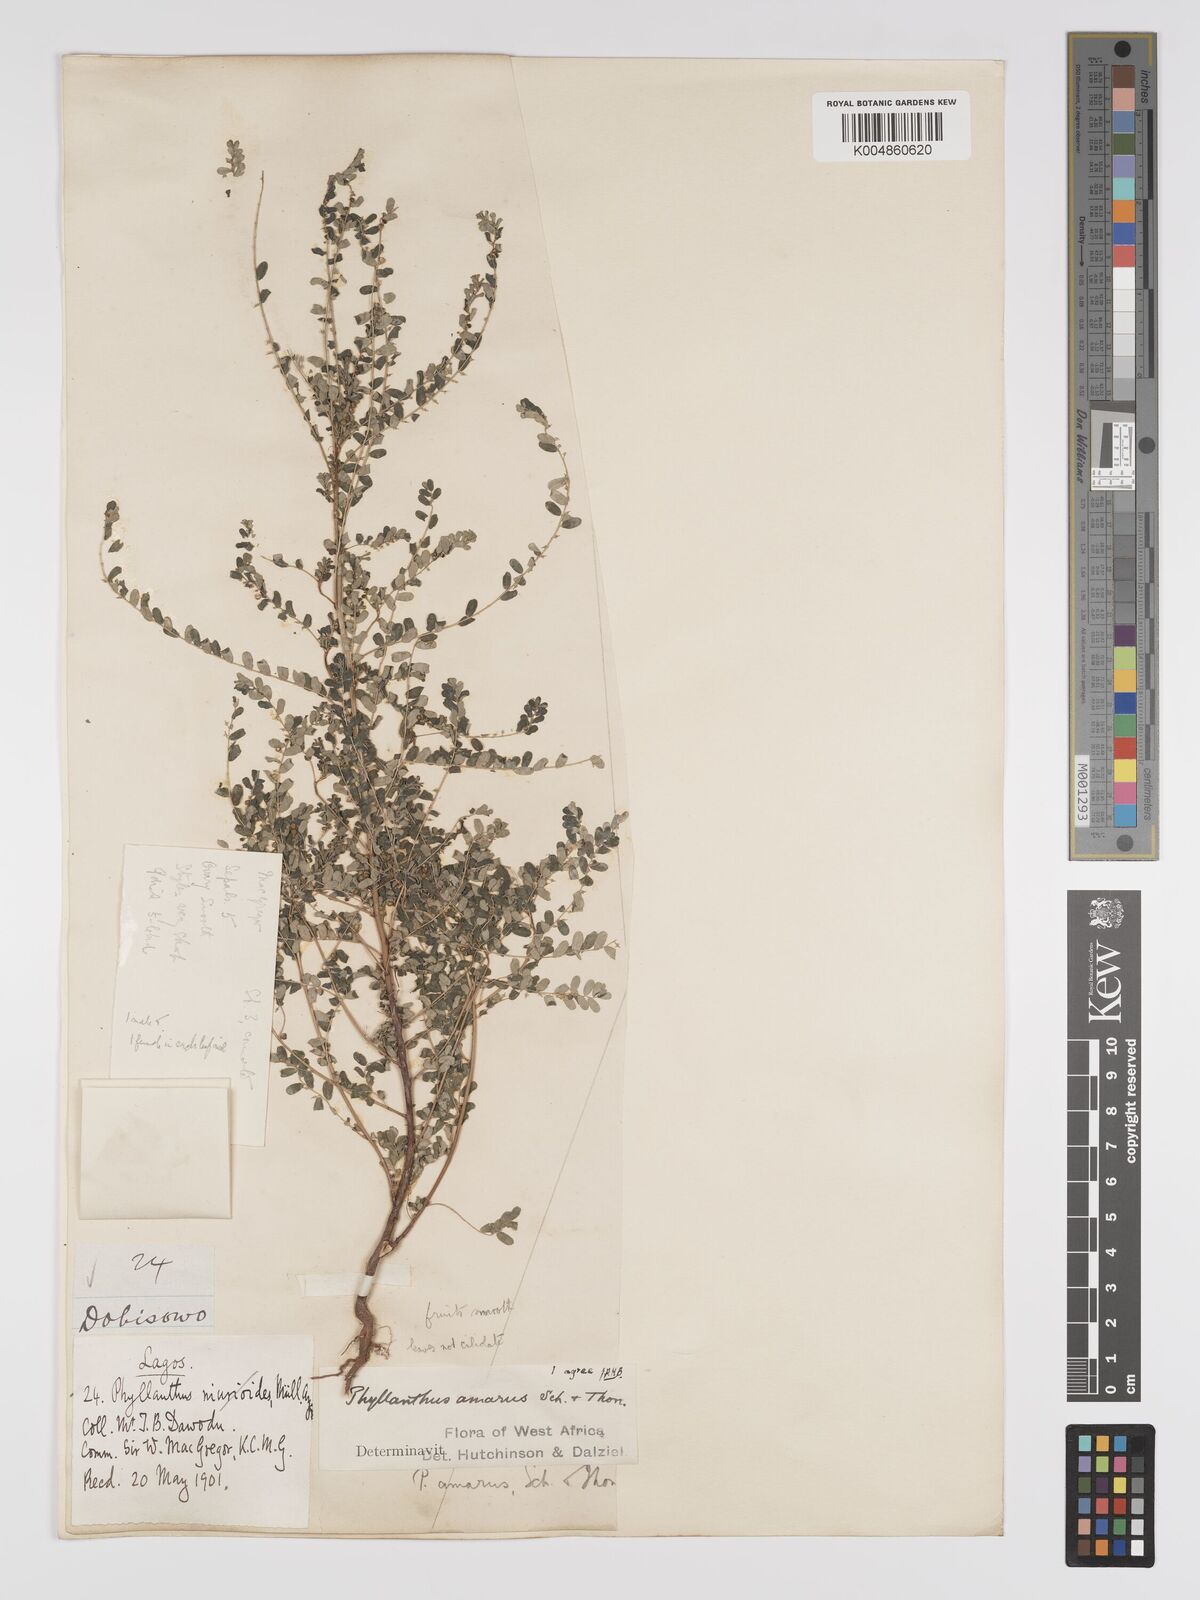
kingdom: Plantae
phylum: Tracheophyta
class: Magnoliopsida
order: Malpighiales
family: Phyllanthaceae
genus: Phyllanthus
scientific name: Phyllanthus amarus
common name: Carry me seed
